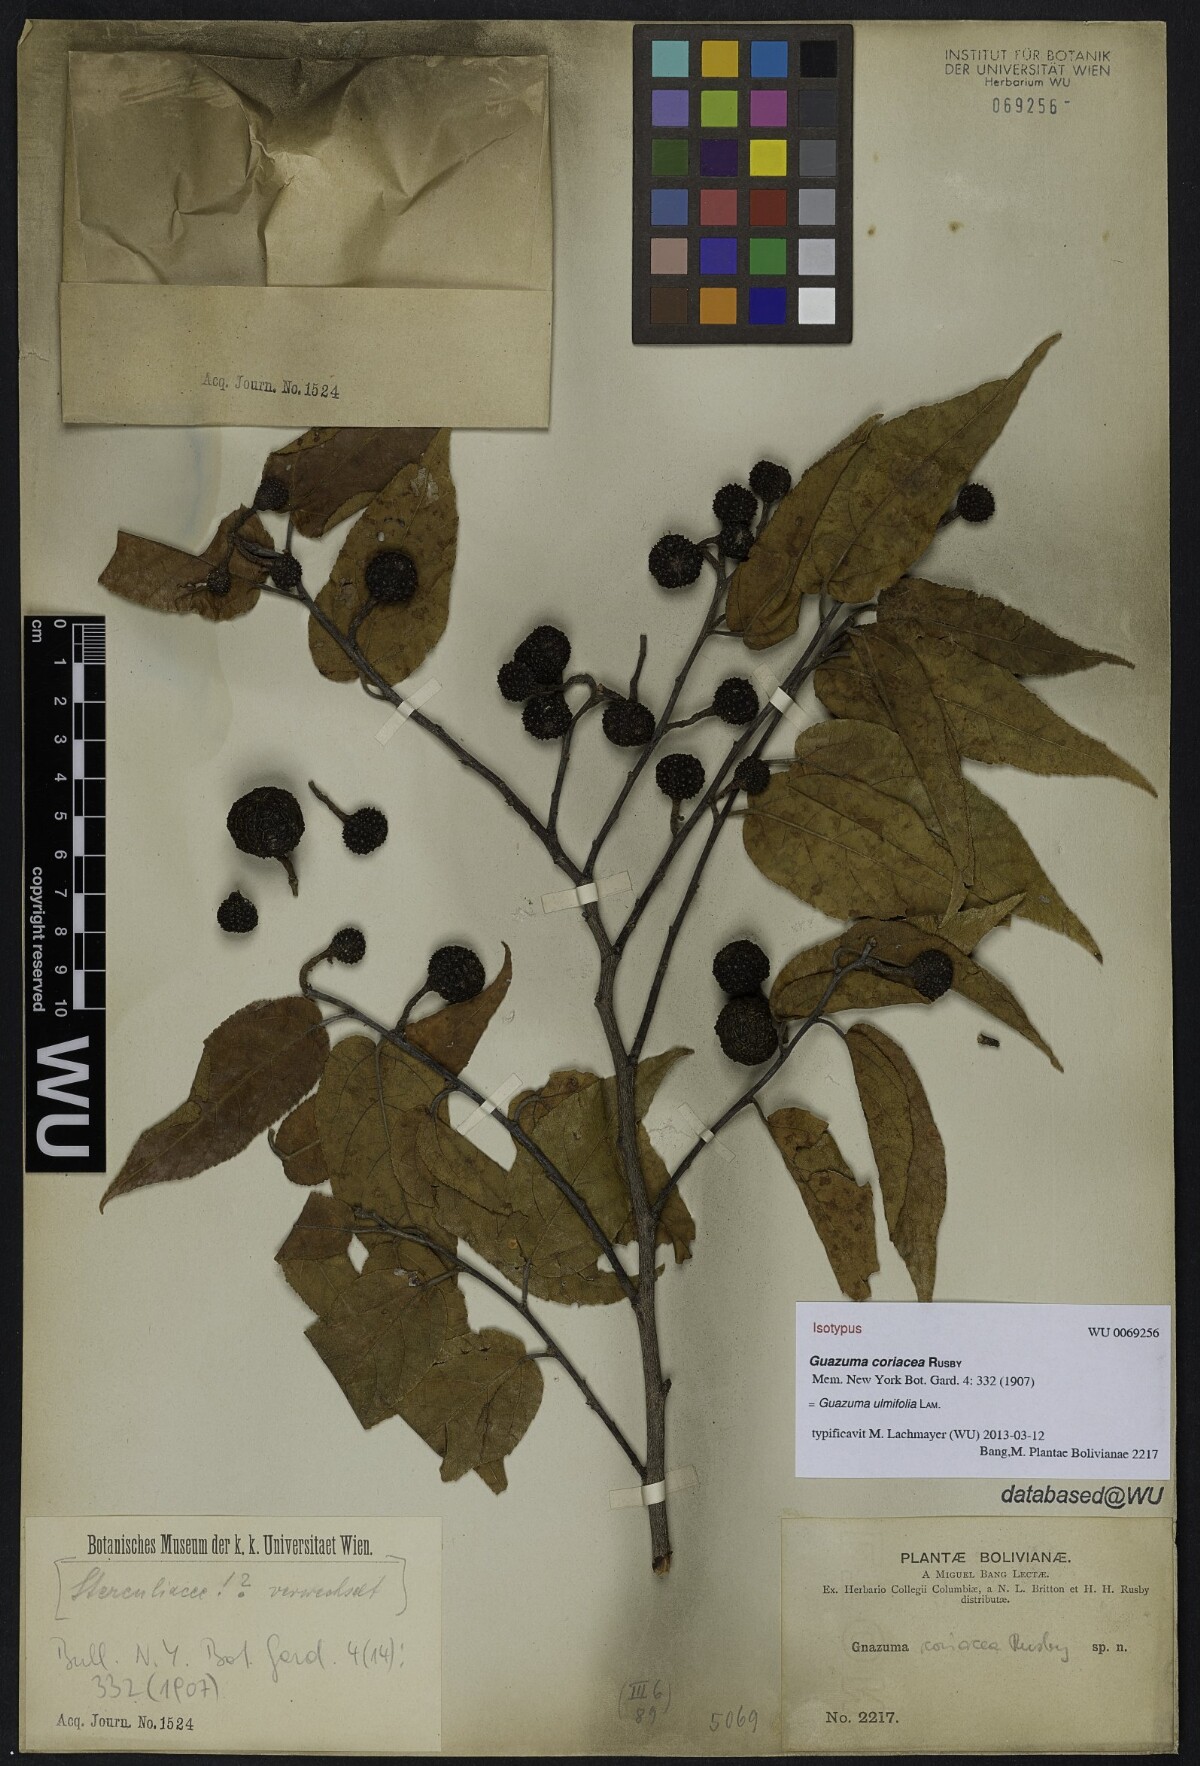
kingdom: Plantae
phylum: Tracheophyta
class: Magnoliopsida
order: Malvales
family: Malvaceae
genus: Guazuma
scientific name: Guazuma ulmifolia
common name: Bastard-cedar
